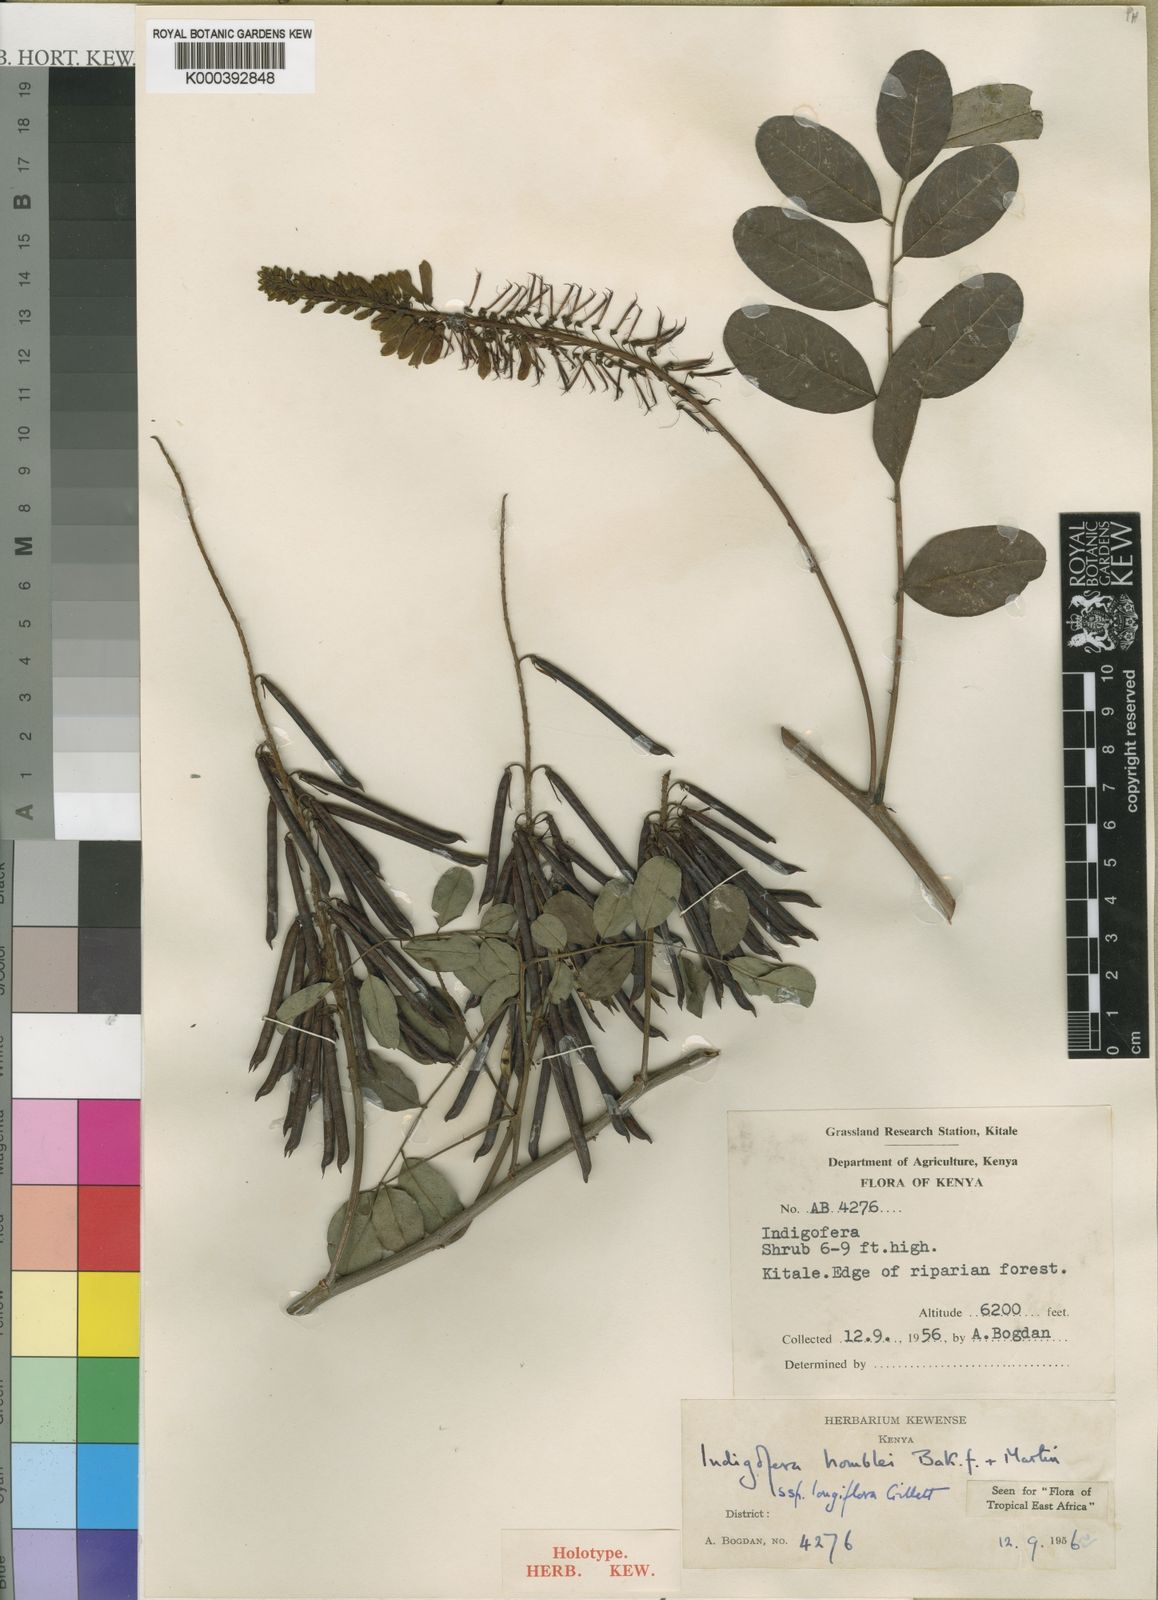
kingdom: Plantae
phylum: Tracheophyta
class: Magnoliopsida
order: Fabales
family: Fabaceae
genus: Indigofera
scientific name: Indigofera homblei
